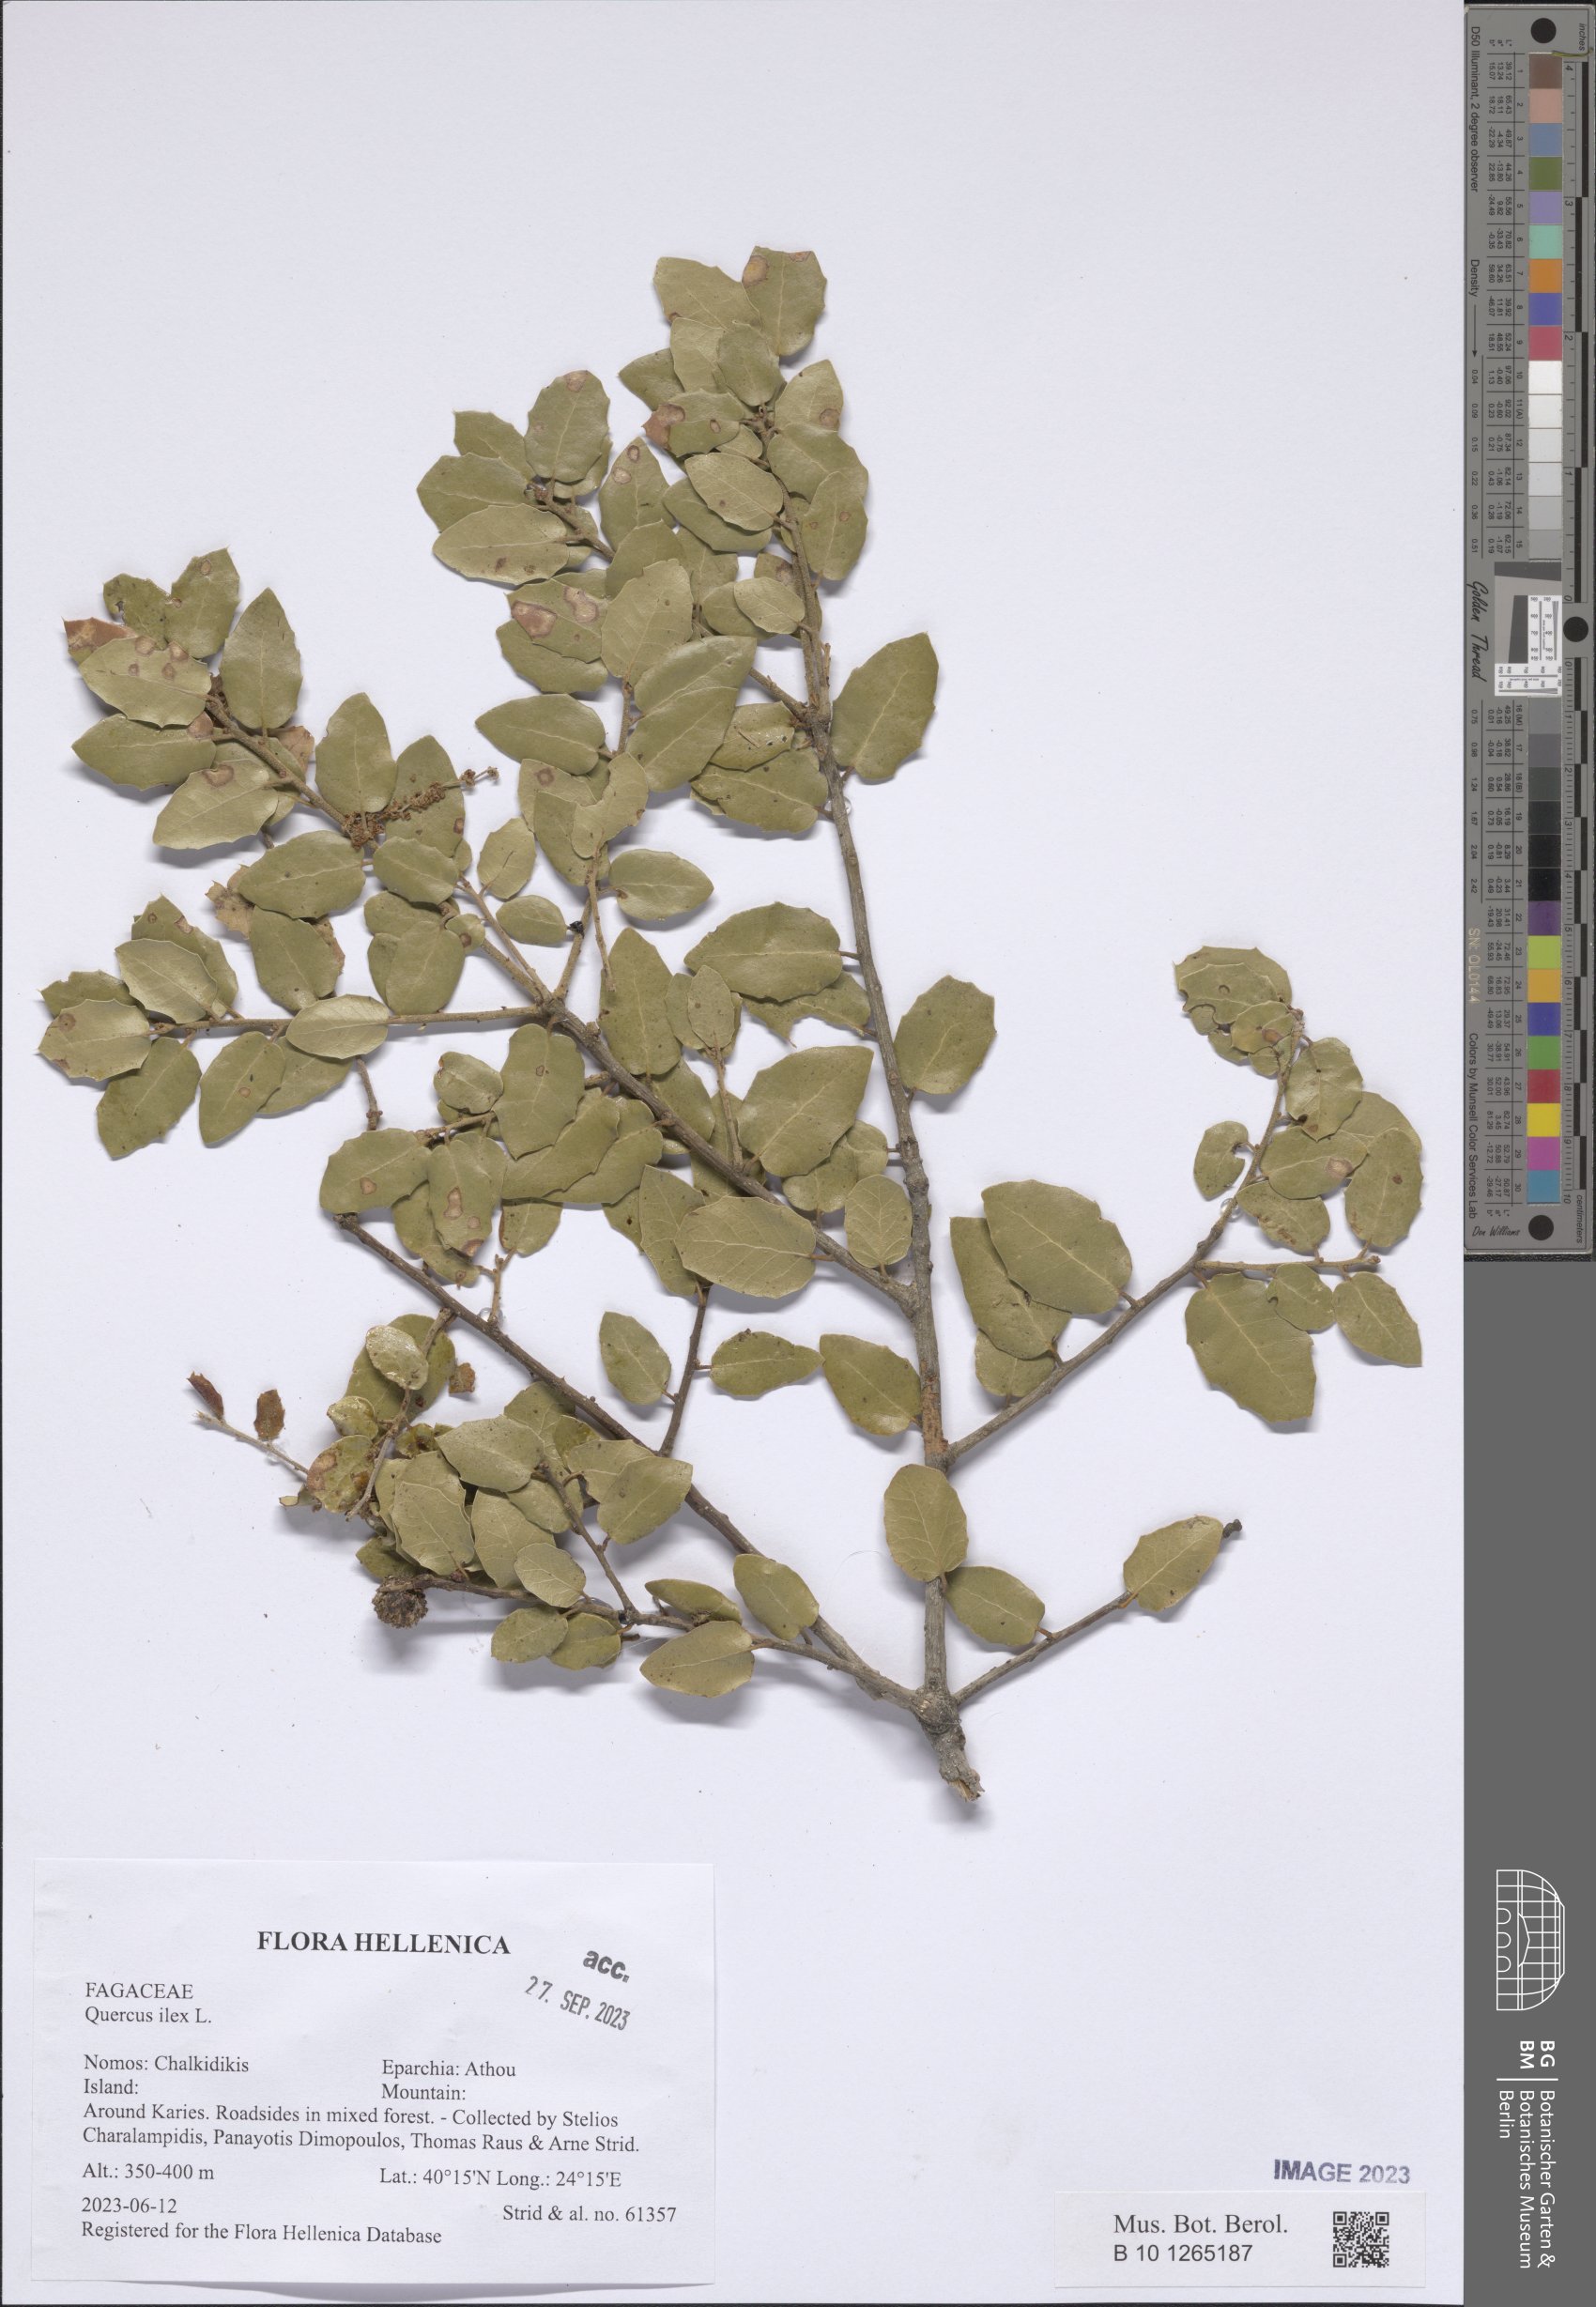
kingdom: Plantae
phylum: Tracheophyta
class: Magnoliopsida
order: Fagales
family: Fagaceae
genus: Quercus
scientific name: Quercus ilex
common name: Evergreen oak
